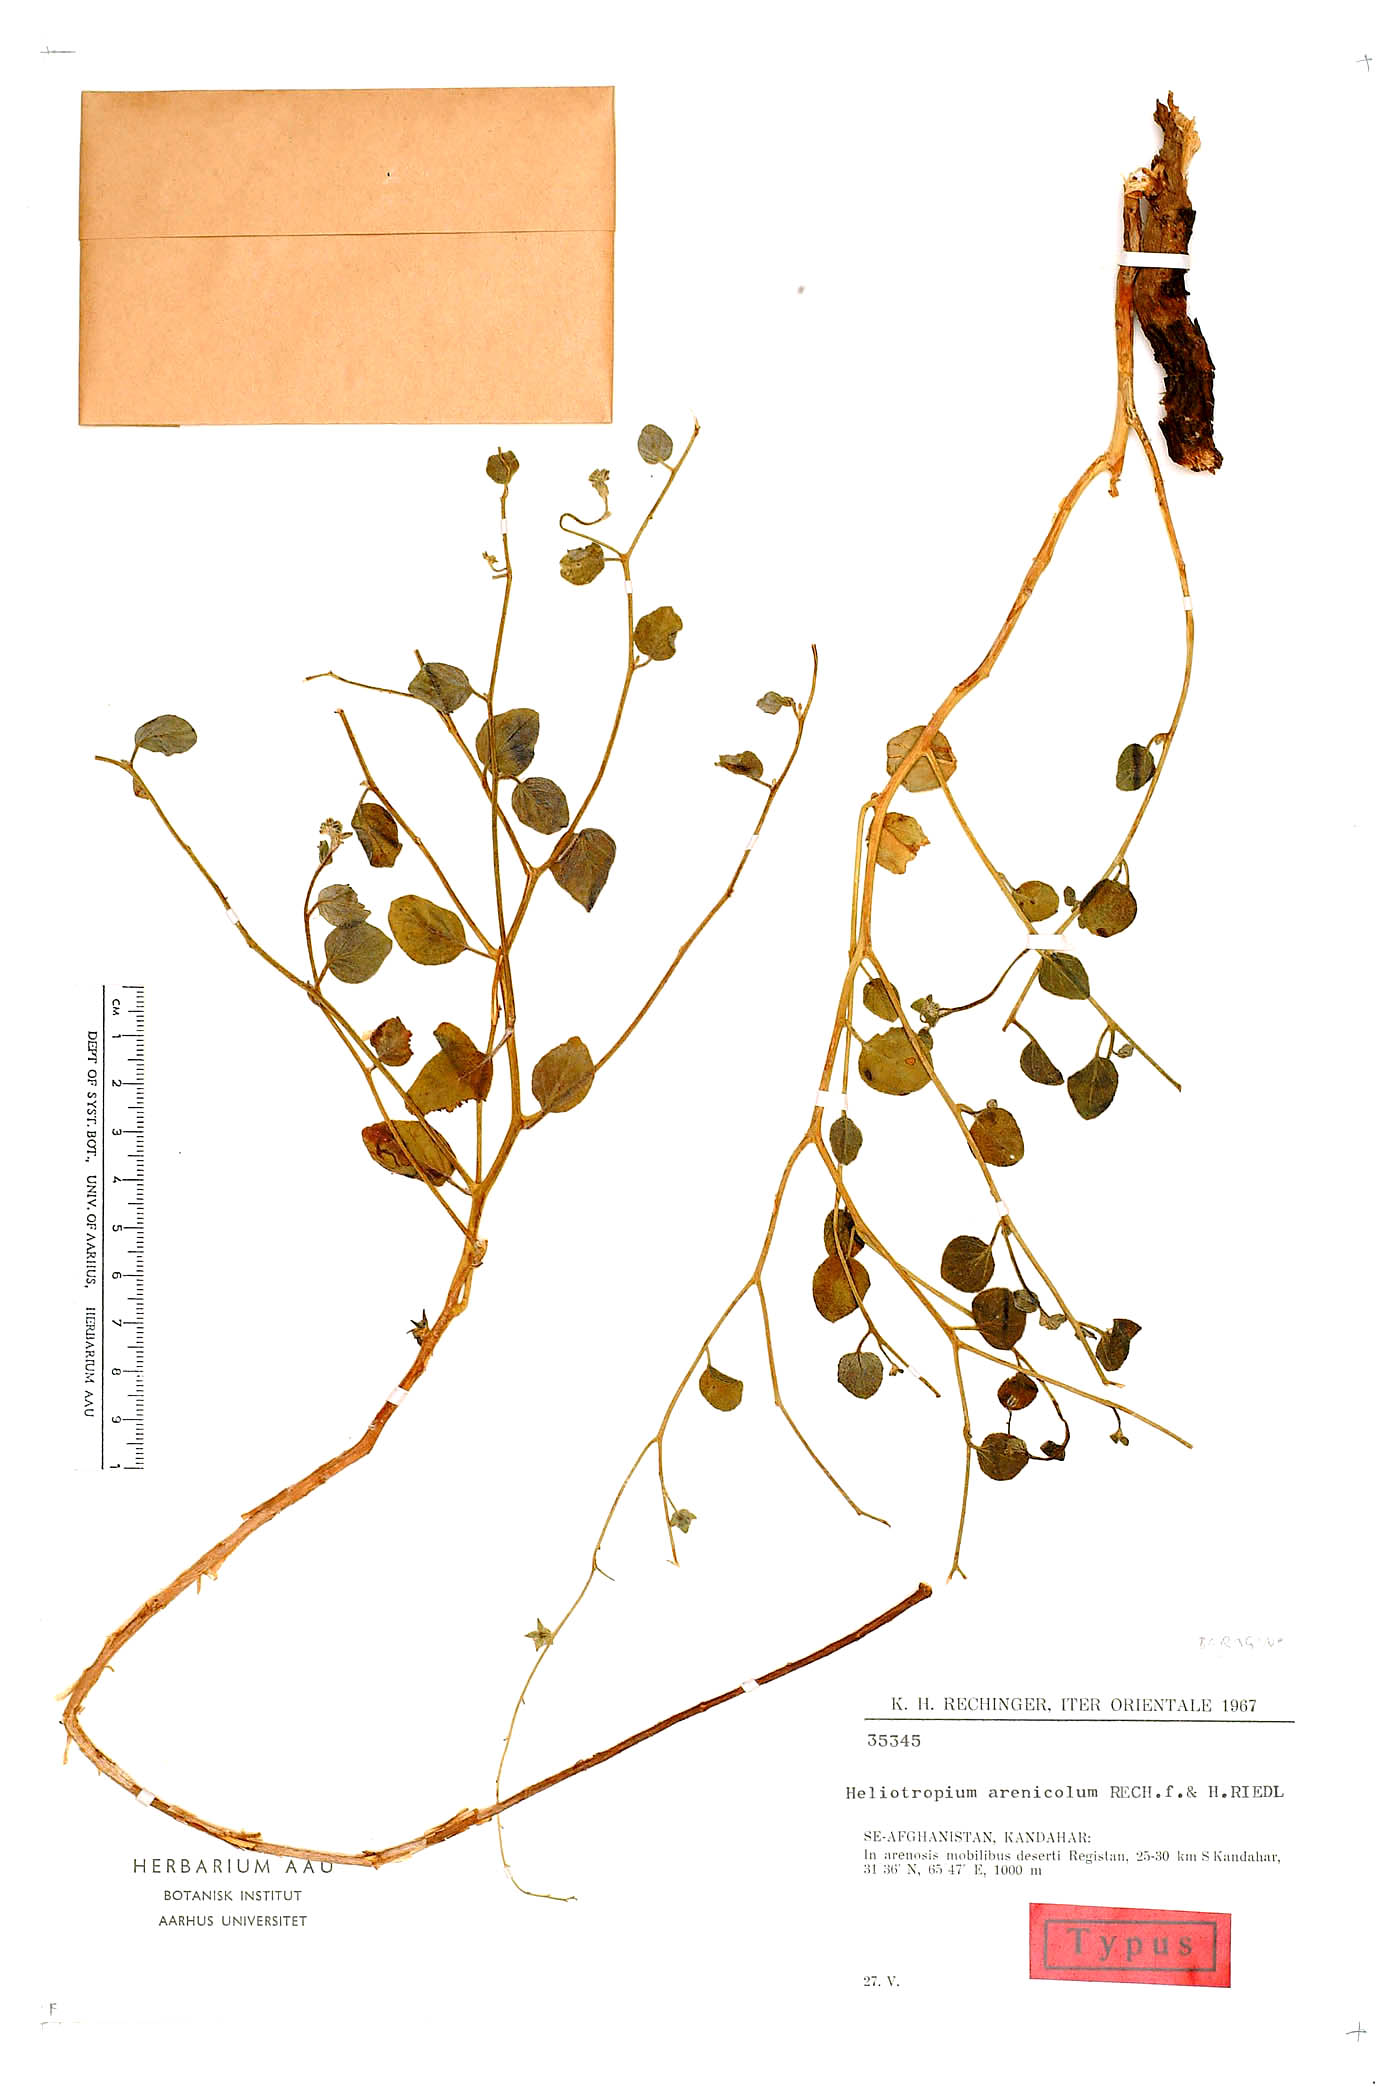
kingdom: Plantae
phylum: Tracheophyta
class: Magnoliopsida
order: Boraginales
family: Heliotropiaceae
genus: Heliotropium
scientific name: Heliotropium dasycarpum
